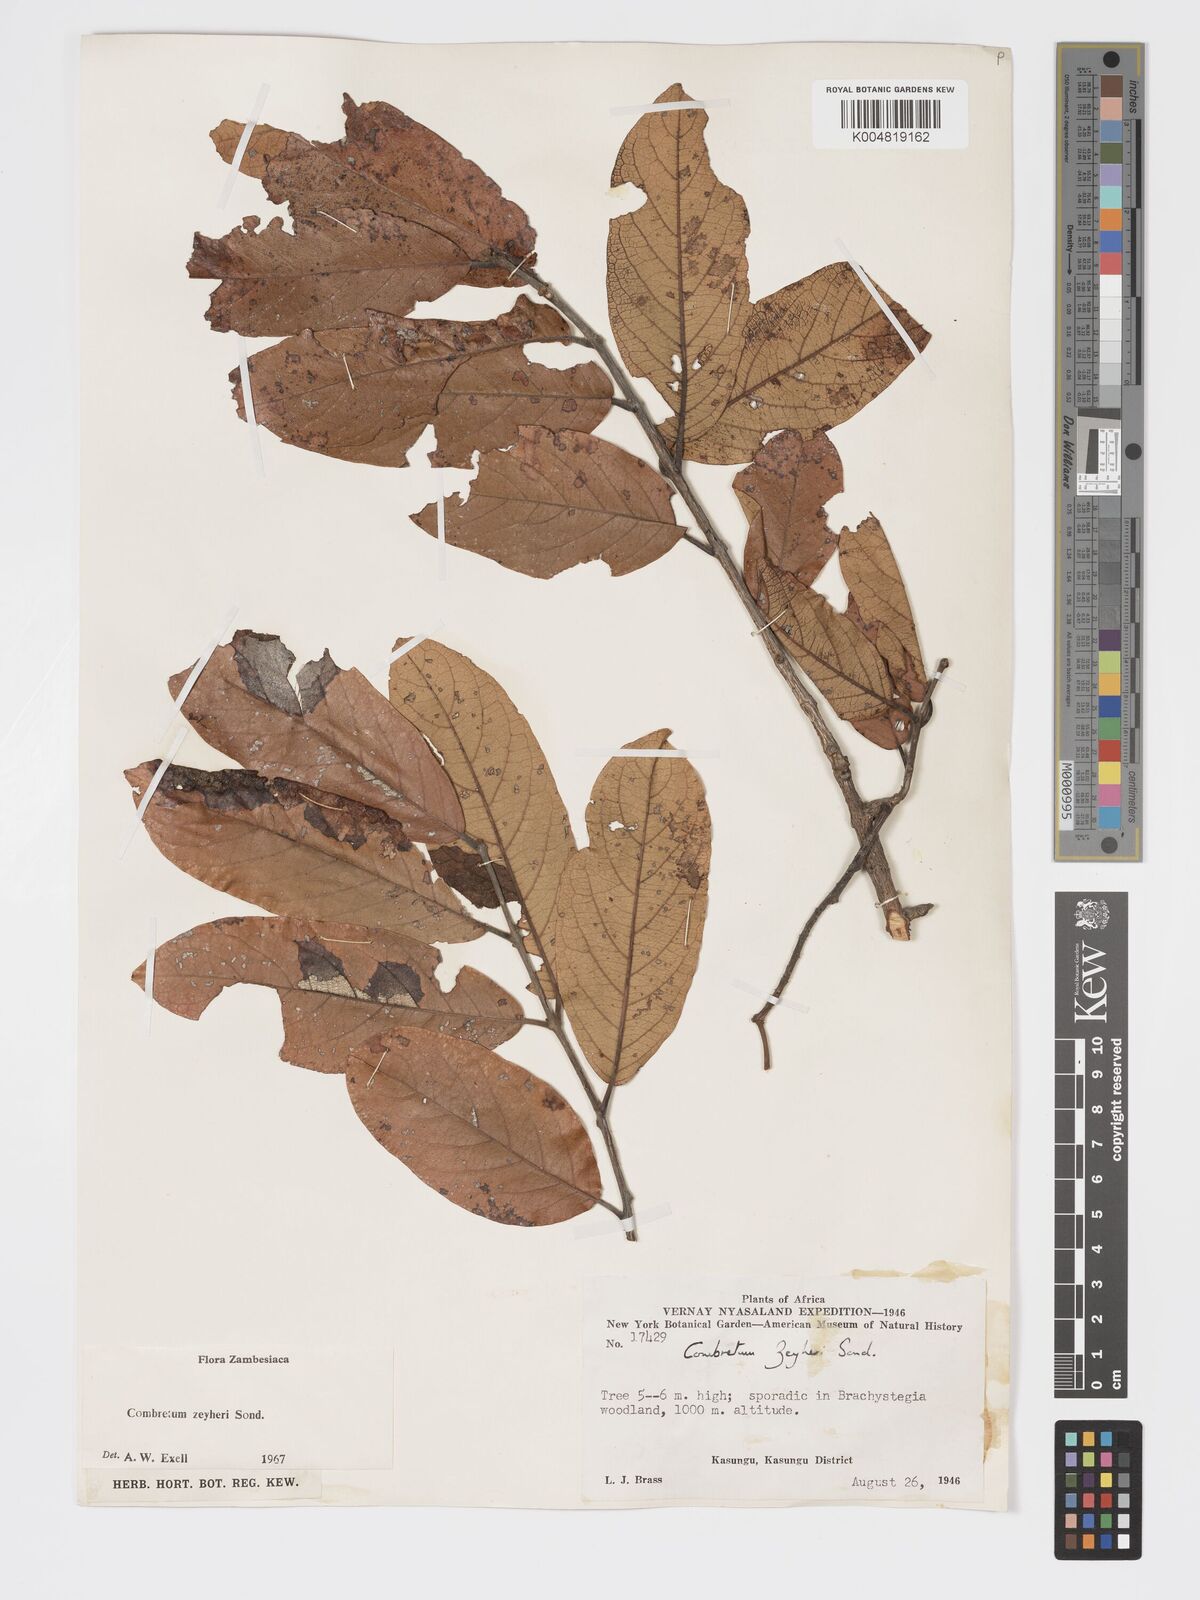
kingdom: Plantae
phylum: Tracheophyta
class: Magnoliopsida
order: Myrtales
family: Combretaceae
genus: Combretum
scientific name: Combretum zeyheri
